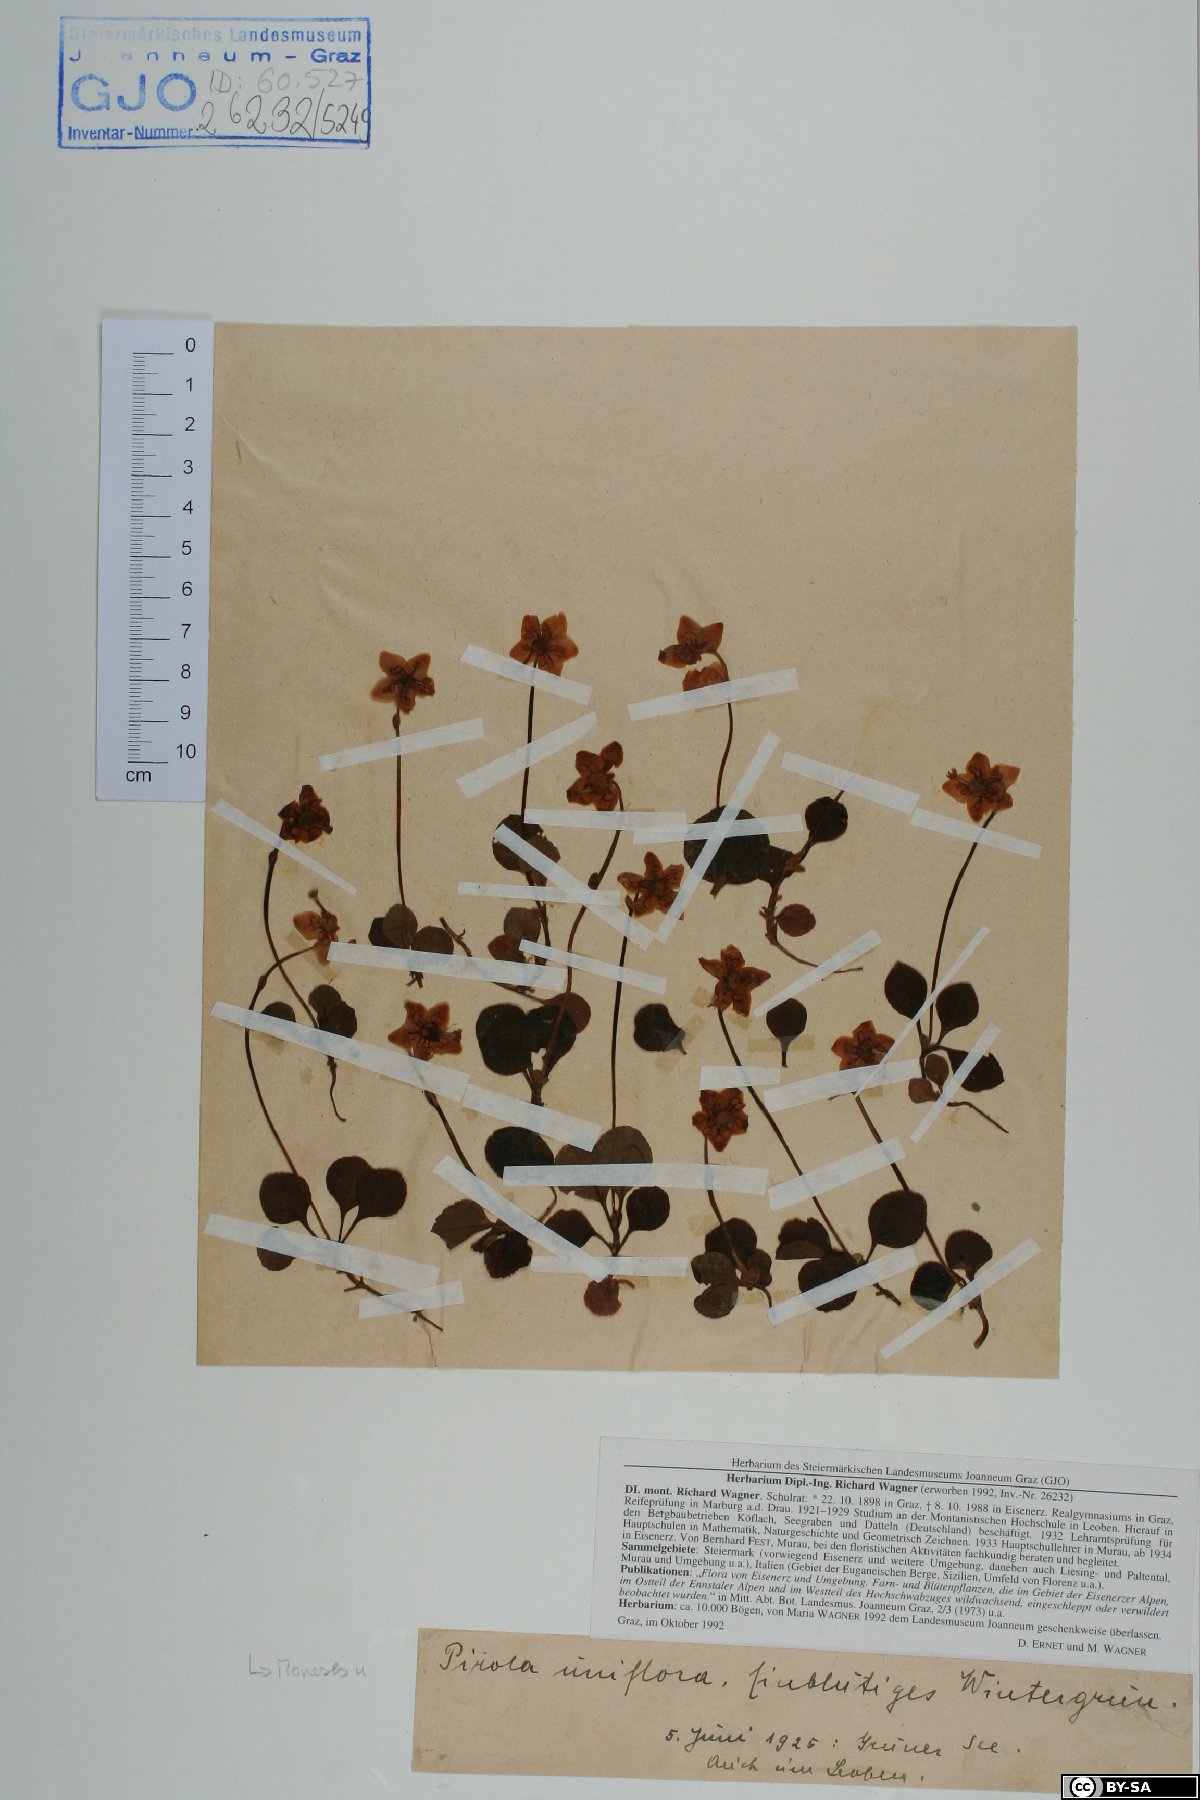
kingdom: Plantae
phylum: Tracheophyta
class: Magnoliopsida
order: Ericales
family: Ericaceae
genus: Moneses
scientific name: Moneses uniflora
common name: One-flowered wintergreen
